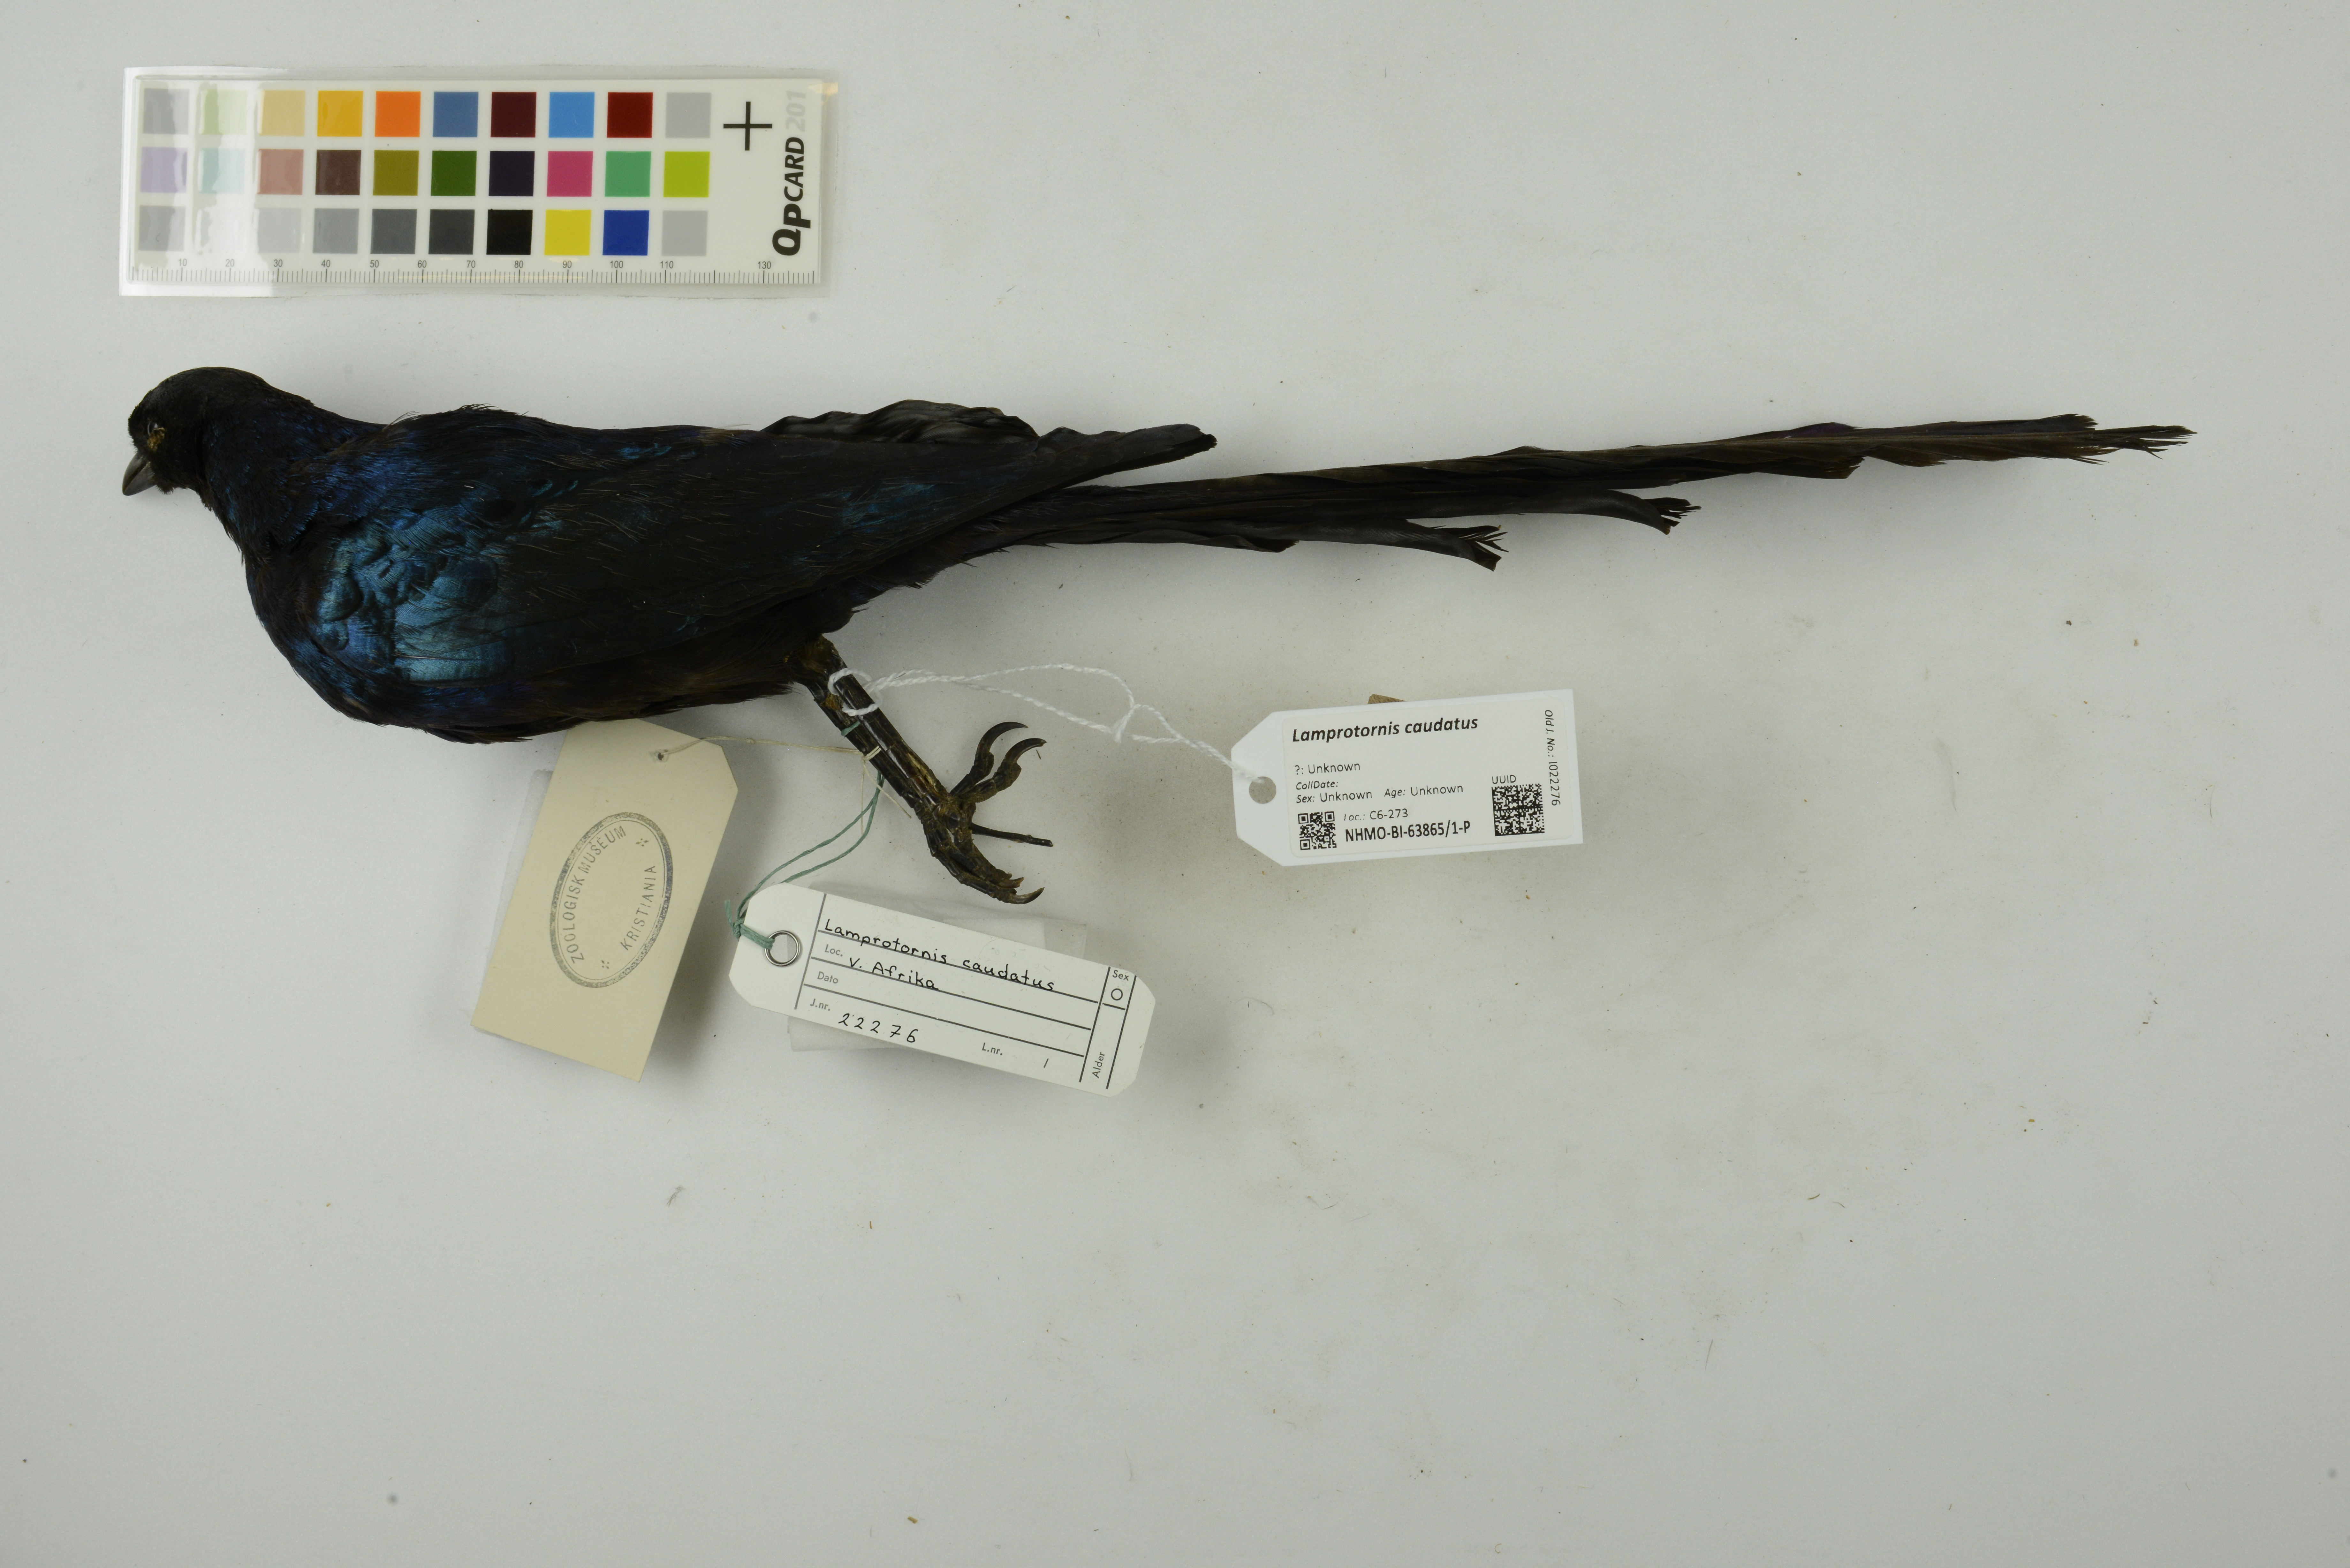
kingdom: Animalia
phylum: Chordata
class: Aves
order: Passeriformes
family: Sturnidae
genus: Lamprotornis
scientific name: Lamprotornis caudatus
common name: Long-tailed glossy starling
